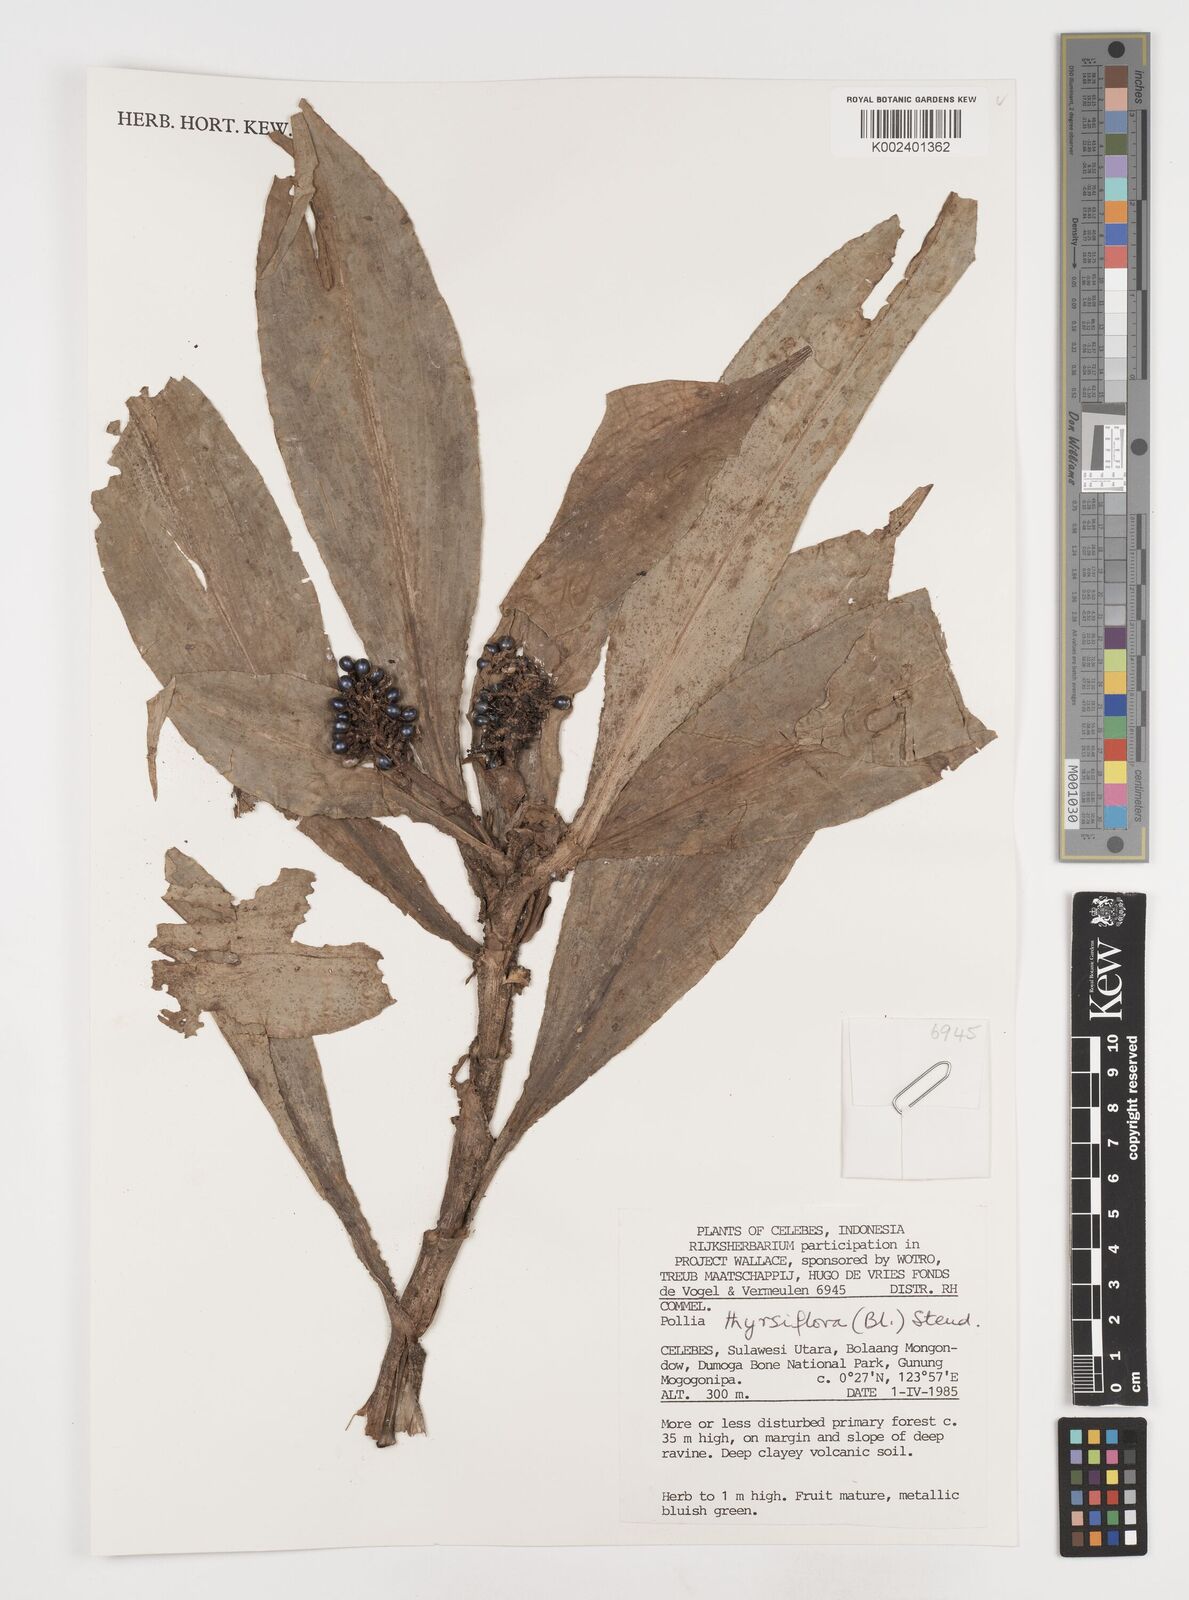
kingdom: Plantae
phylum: Tracheophyta
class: Liliopsida
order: Commelinales
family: Commelinaceae
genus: Pollia
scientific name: Pollia thyrsiflora
